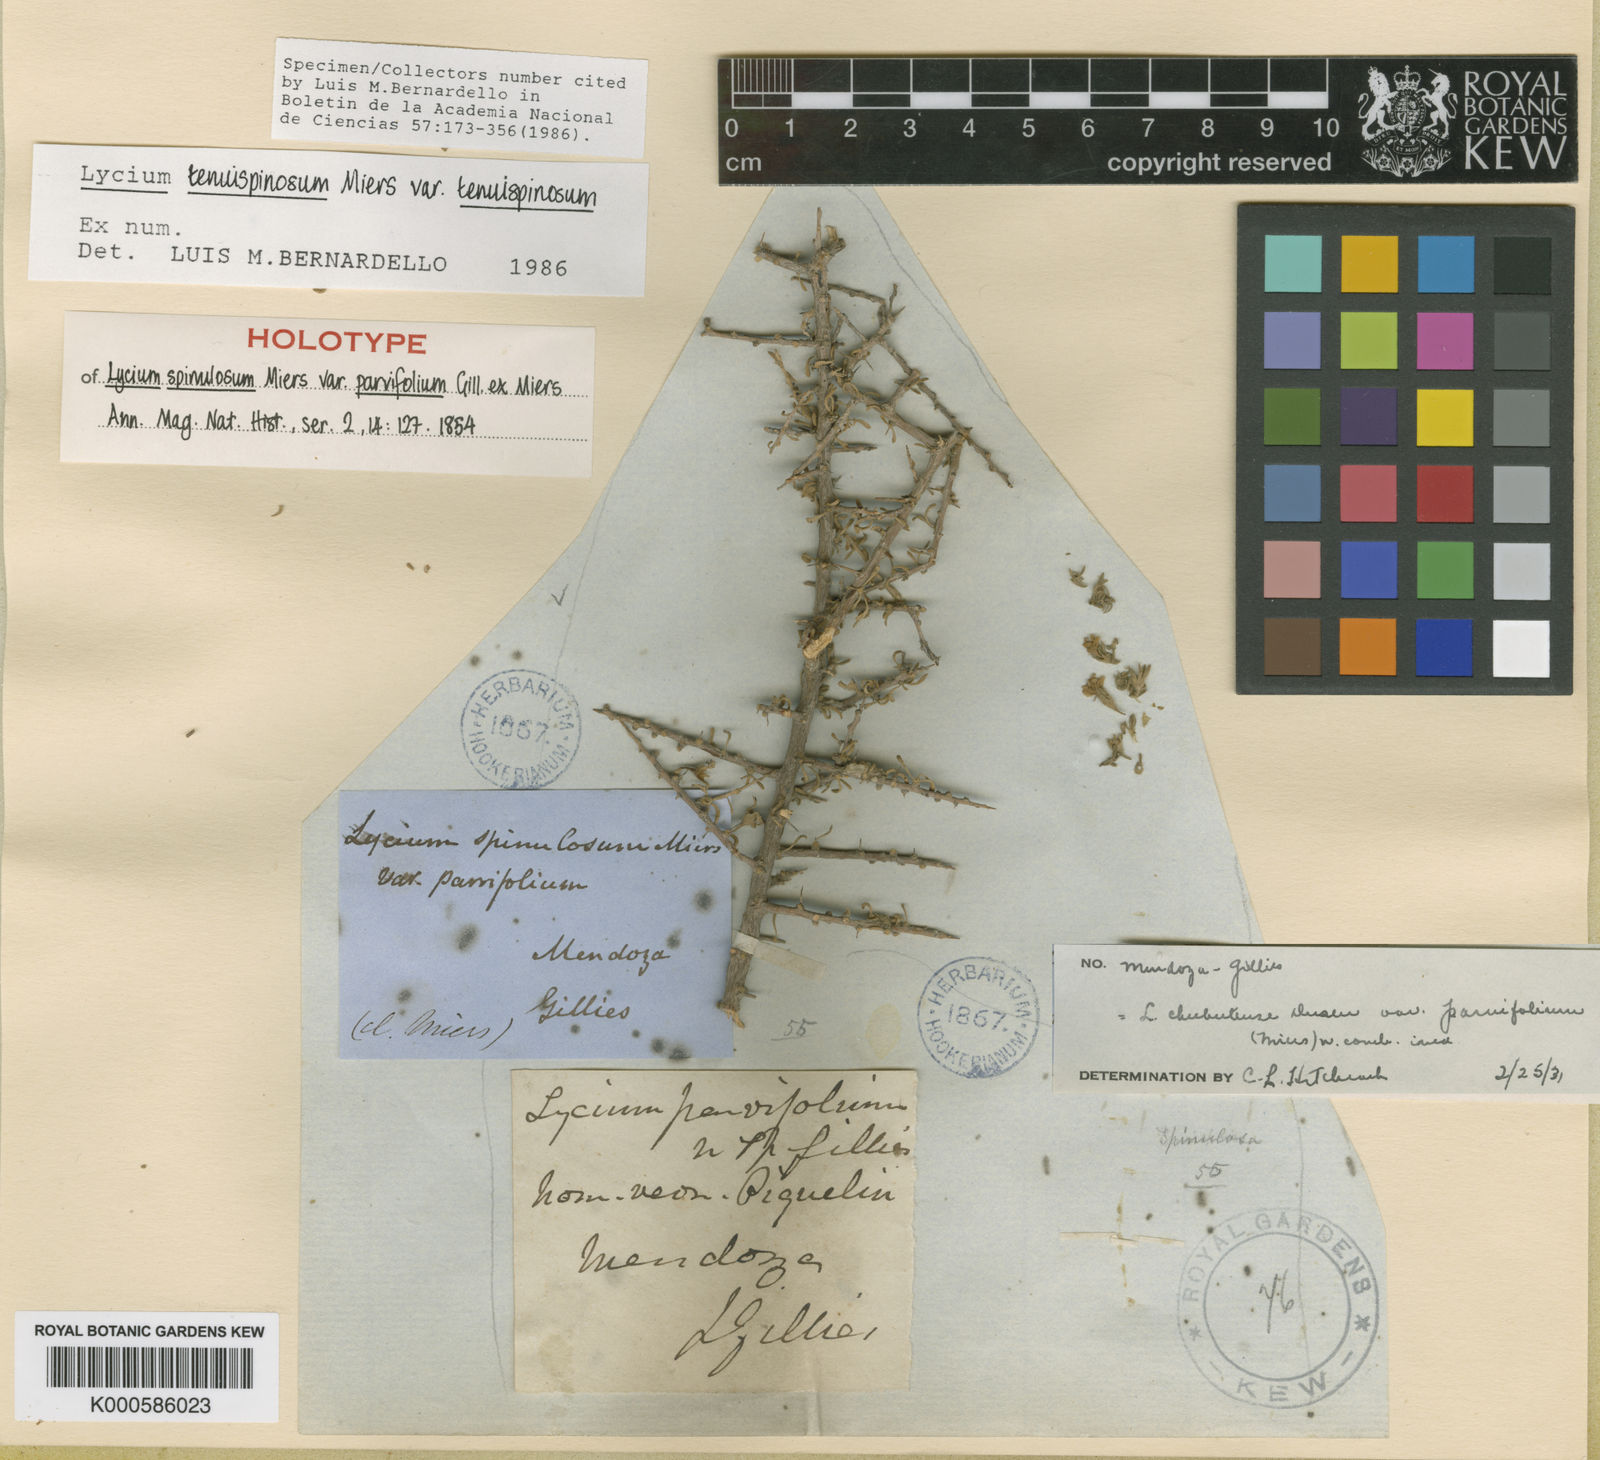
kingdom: Plantae
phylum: Tracheophyta
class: Magnoliopsida
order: Solanales
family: Solanaceae
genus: Lycium
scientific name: Lycium tenuispinosum
